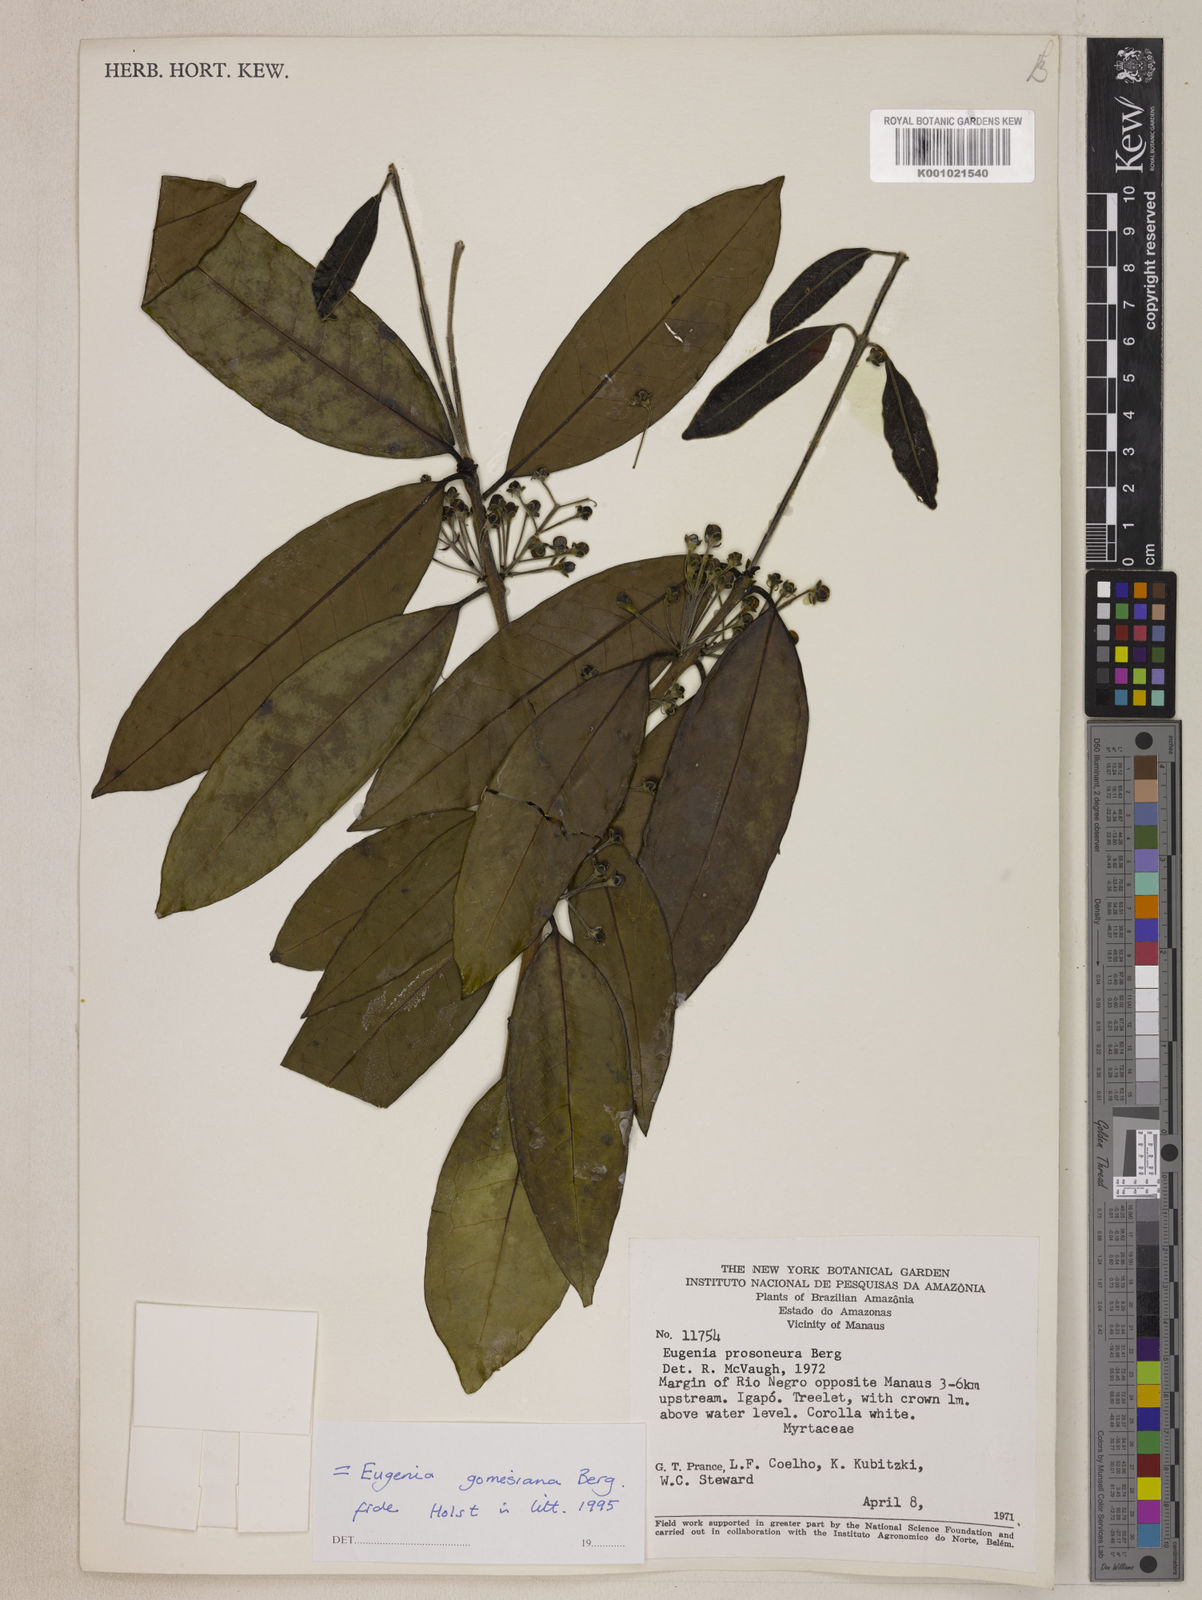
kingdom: Plantae
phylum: Tracheophyta
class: Magnoliopsida
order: Myrtales
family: Myrtaceae
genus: Eugenia
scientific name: Eugenia gomesiana
